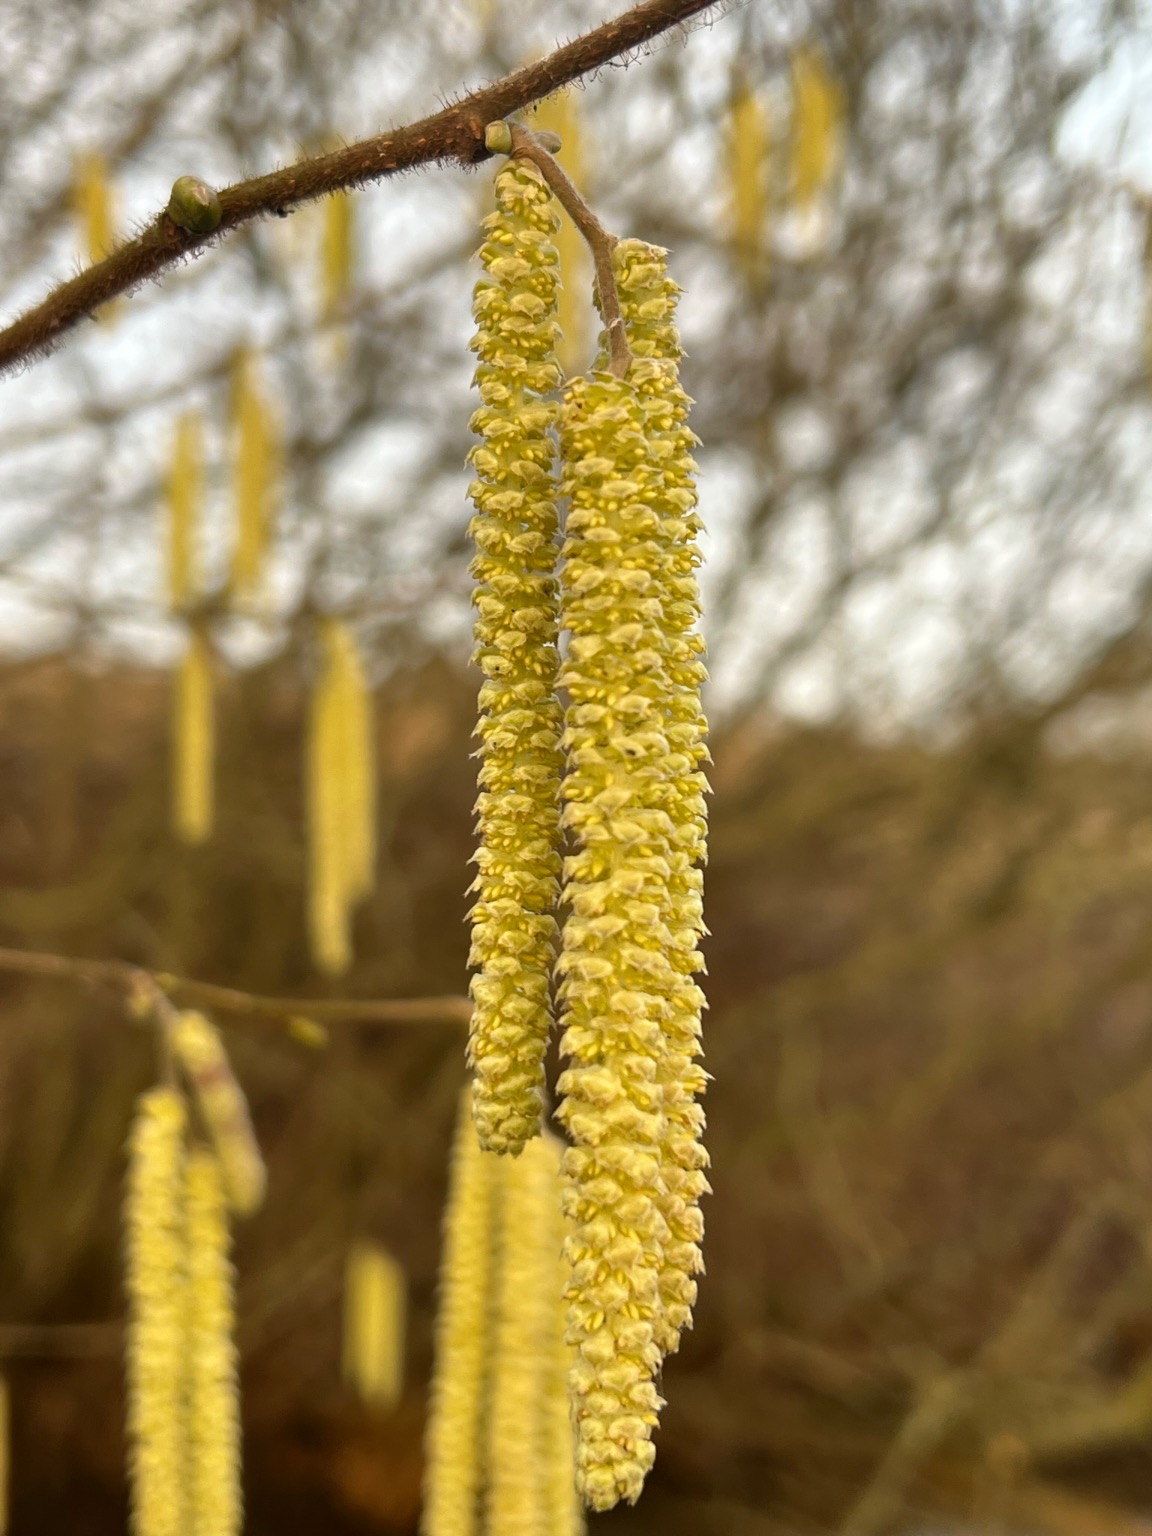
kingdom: Plantae
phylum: Tracheophyta
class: Magnoliopsida
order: Fagales
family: Betulaceae
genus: Corylus
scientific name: Corylus avellana
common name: Hassel
